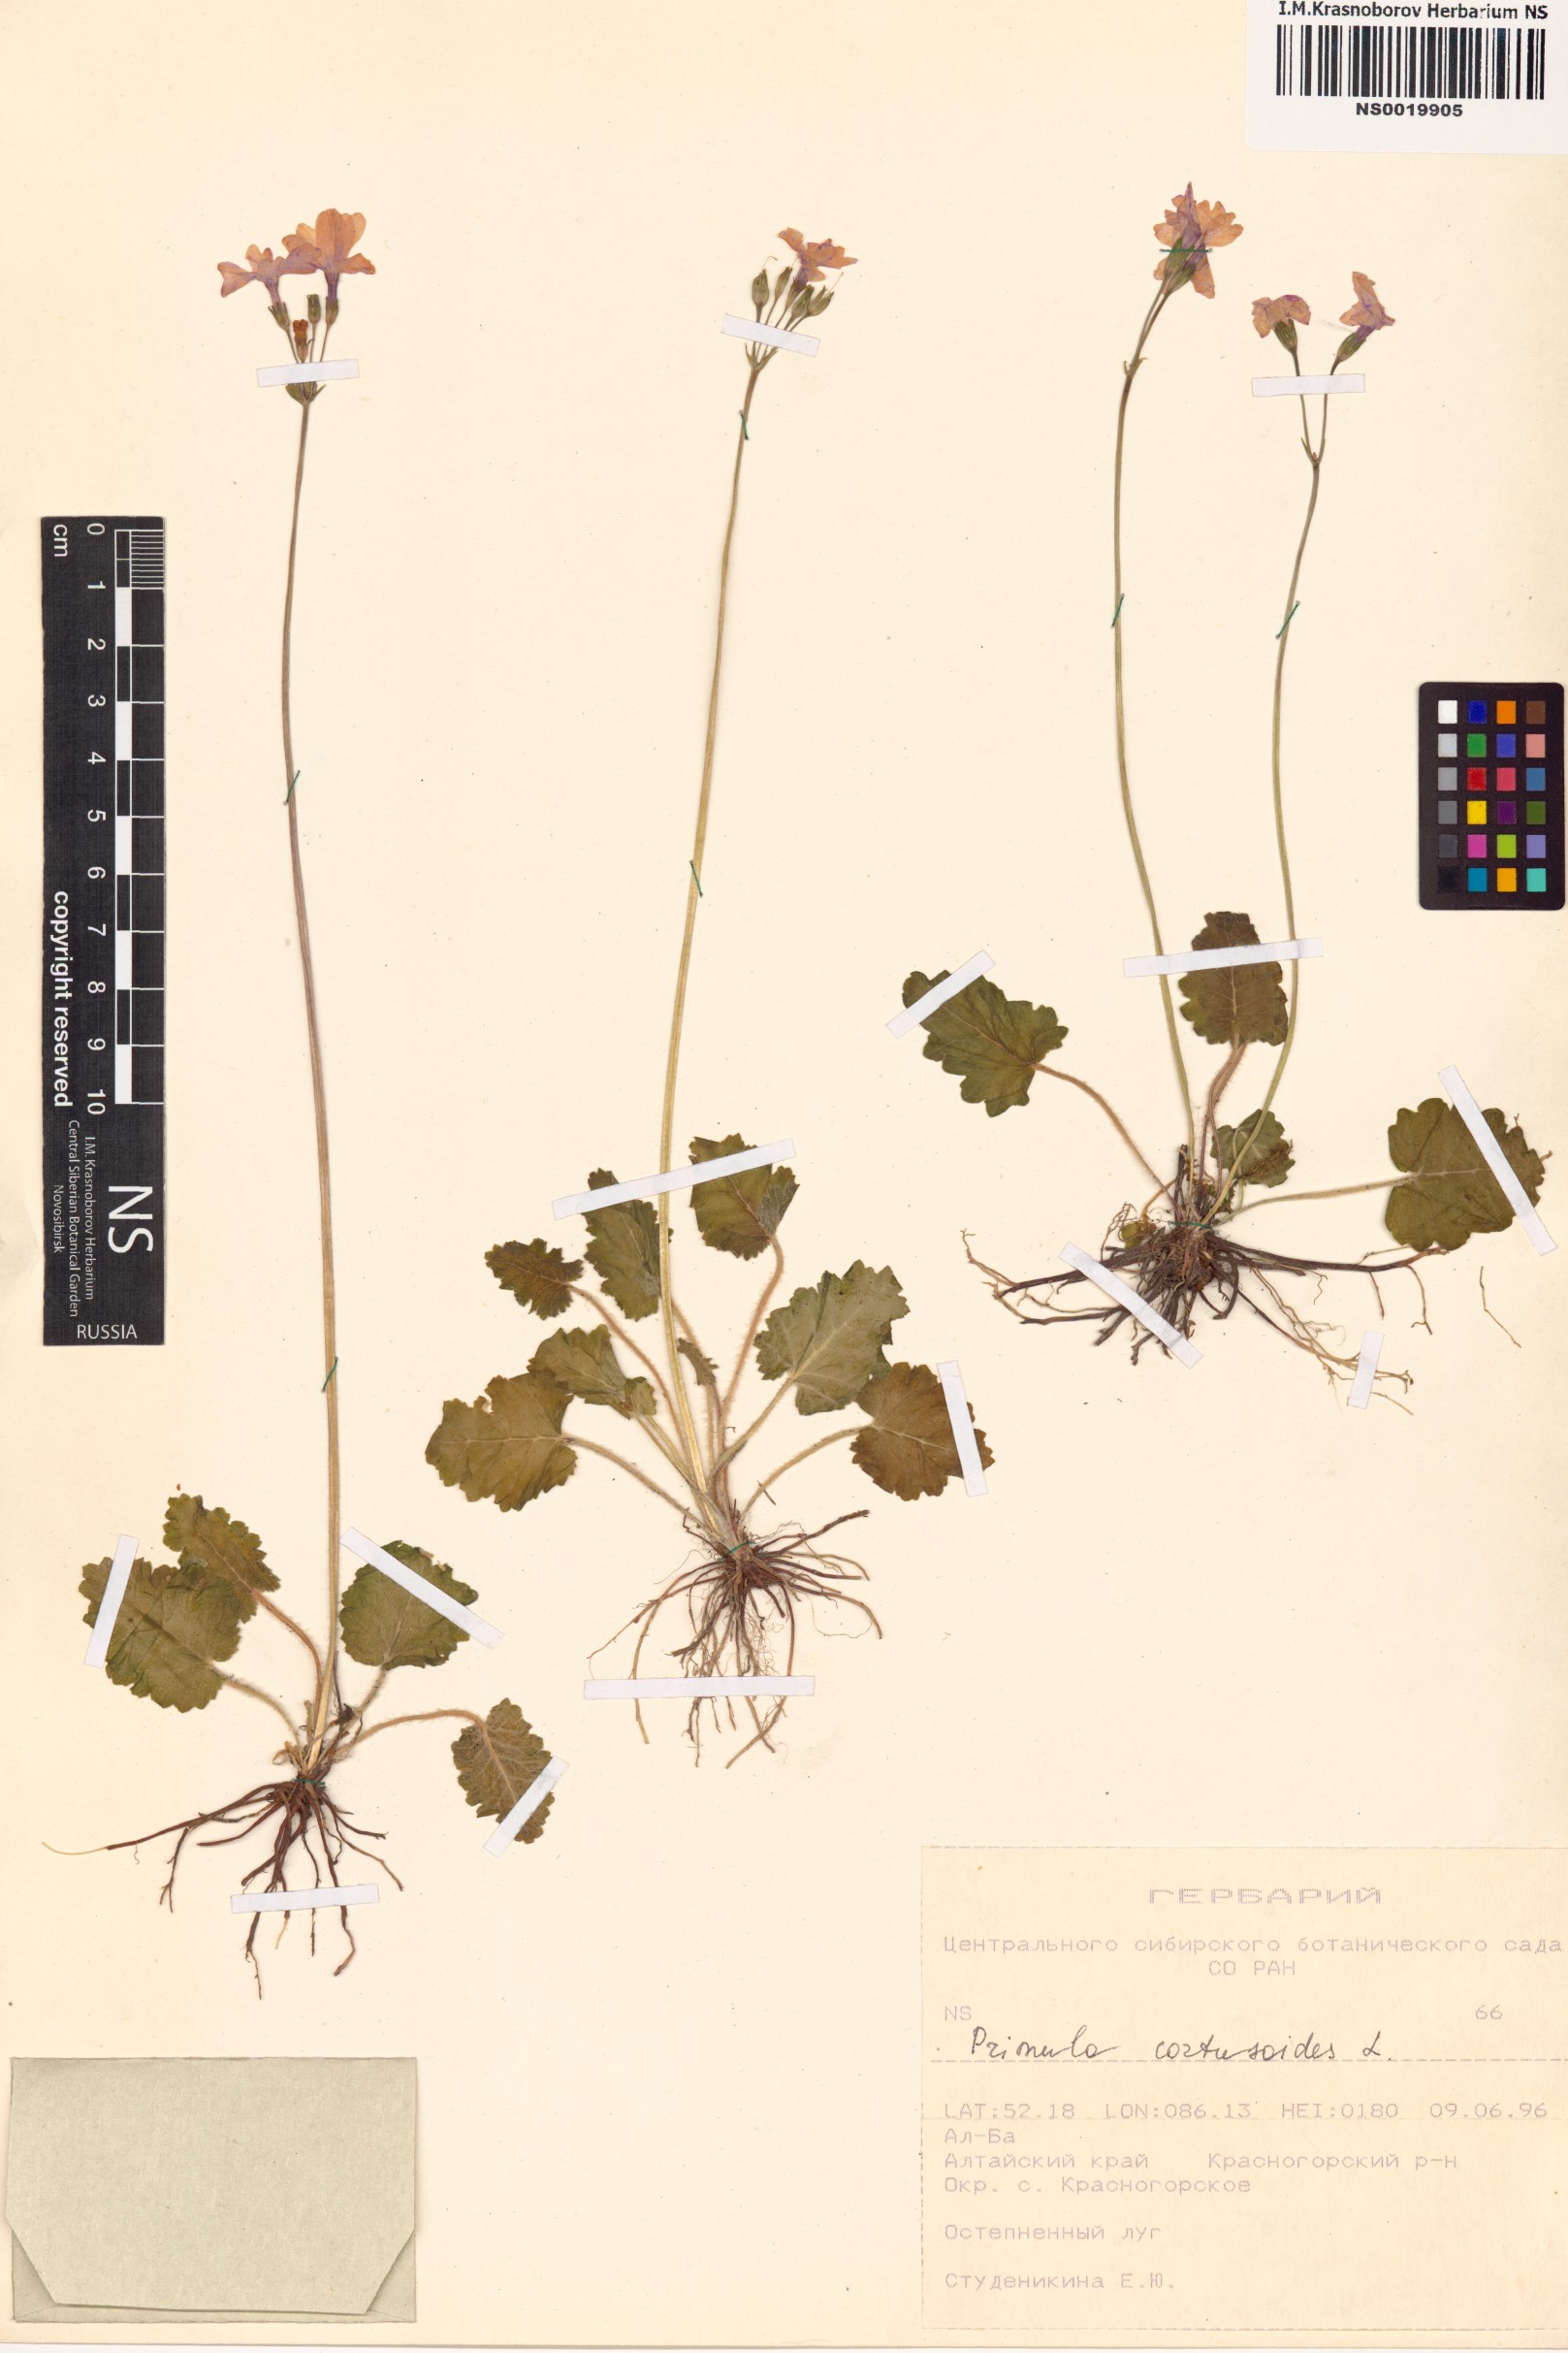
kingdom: Plantae
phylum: Tracheophyta
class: Magnoliopsida
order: Ericales
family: Primulaceae
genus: Primula
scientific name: Primula cortusoides
